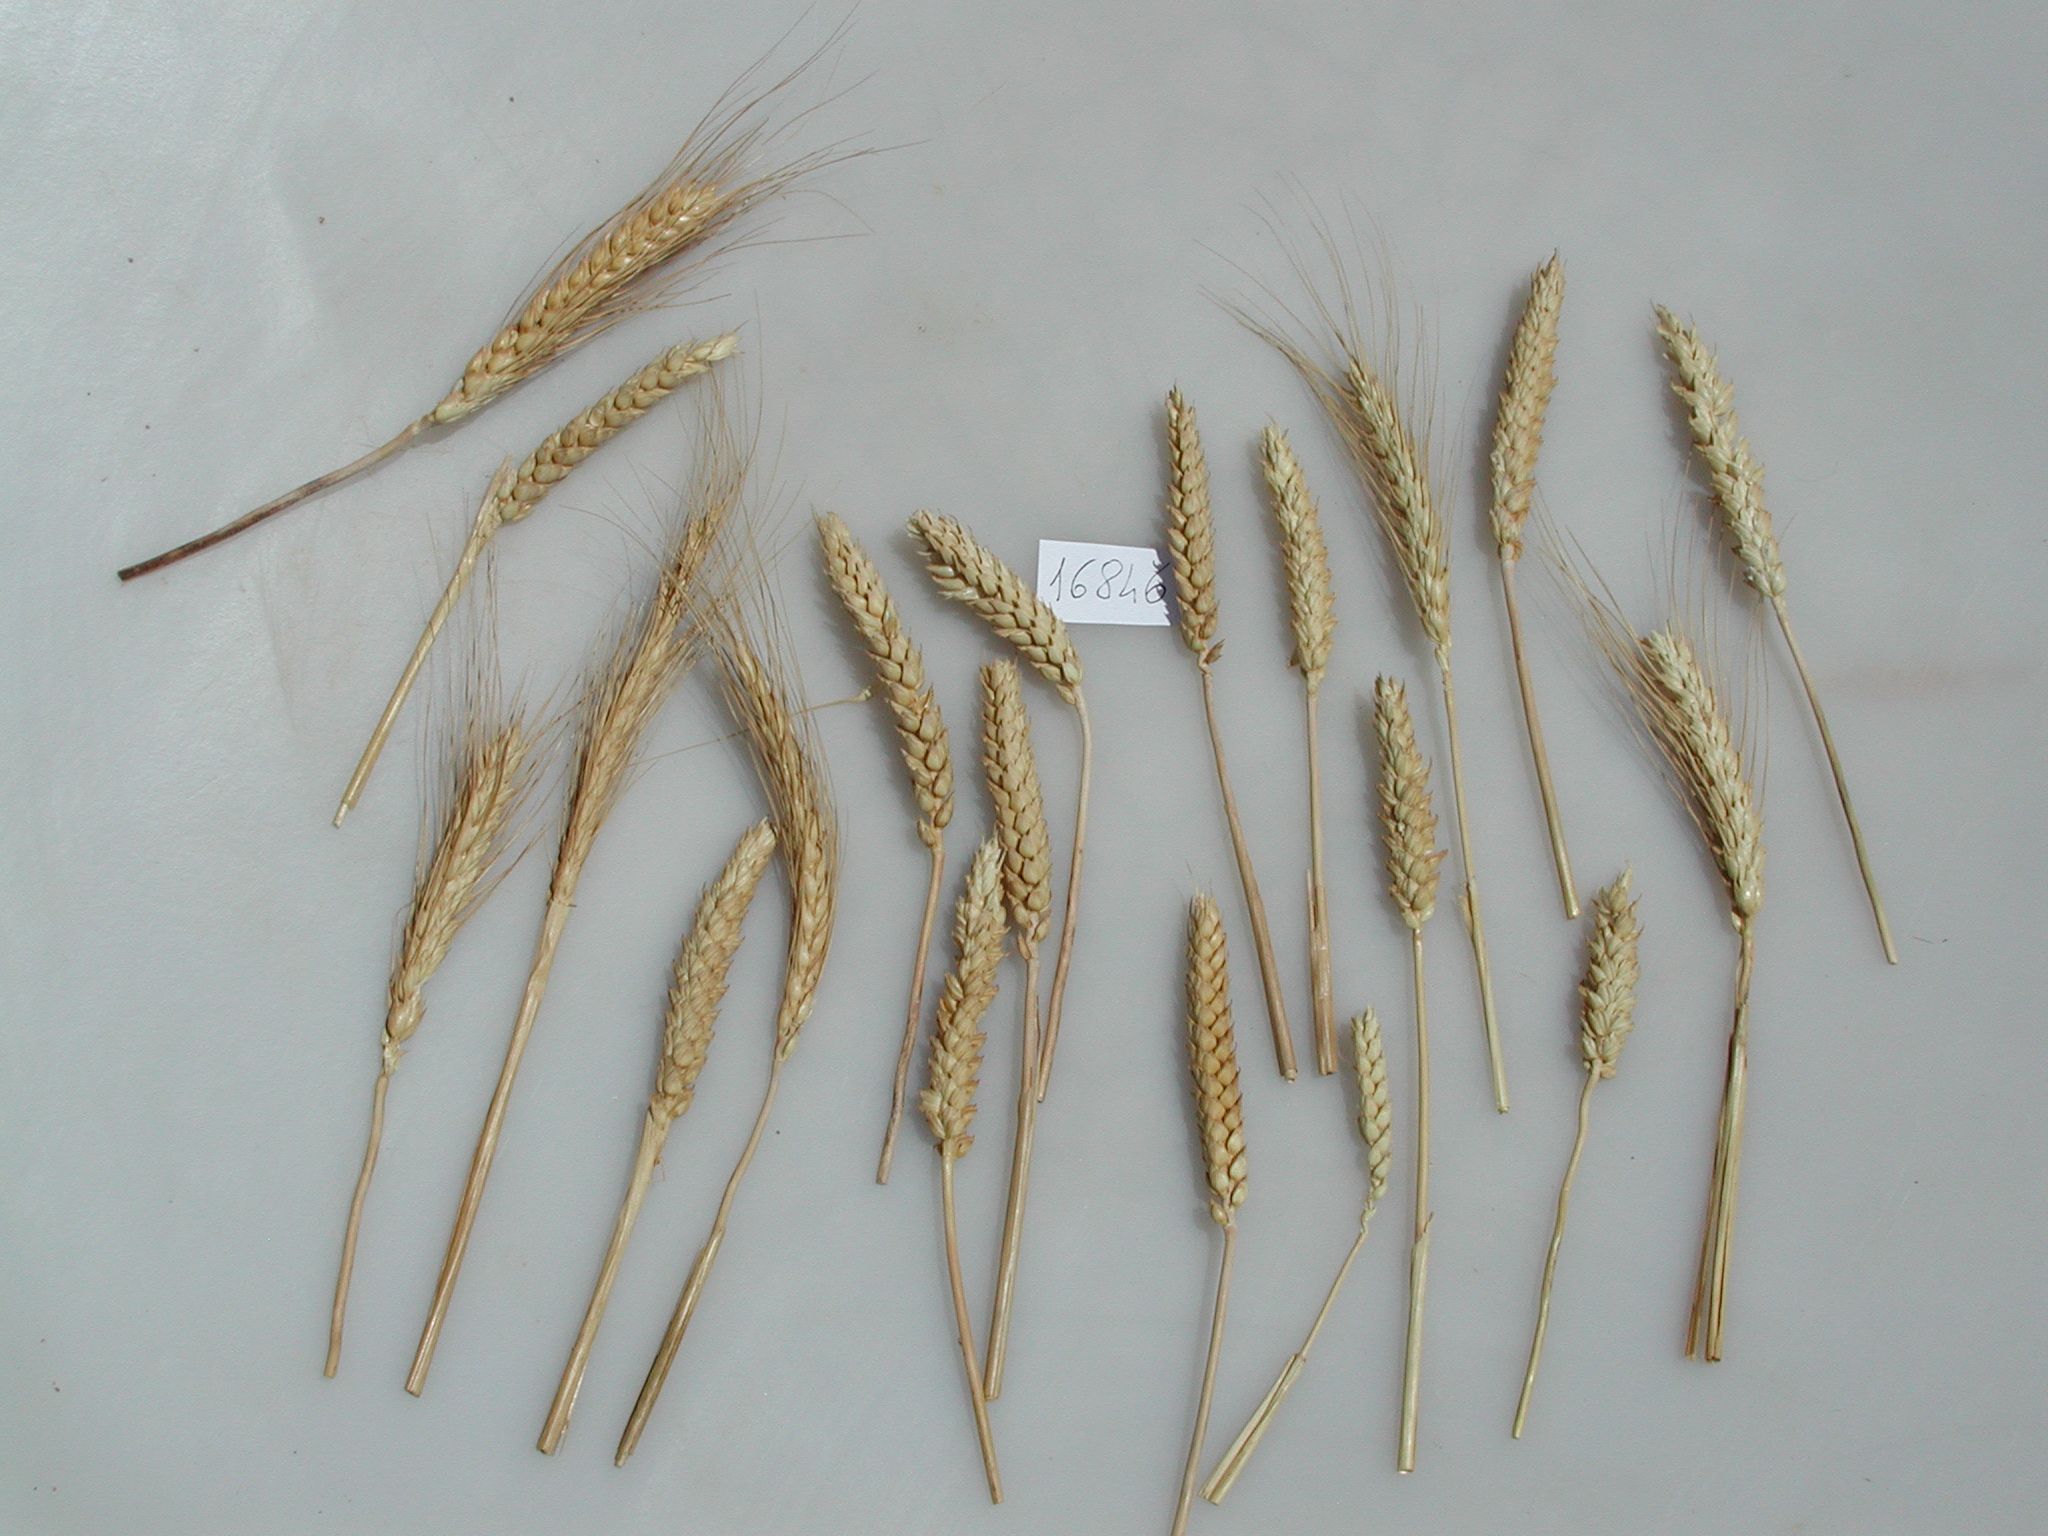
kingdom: Plantae
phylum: Tracheophyta
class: Liliopsida
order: Poales
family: Poaceae
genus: Triticum
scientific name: Triticum
